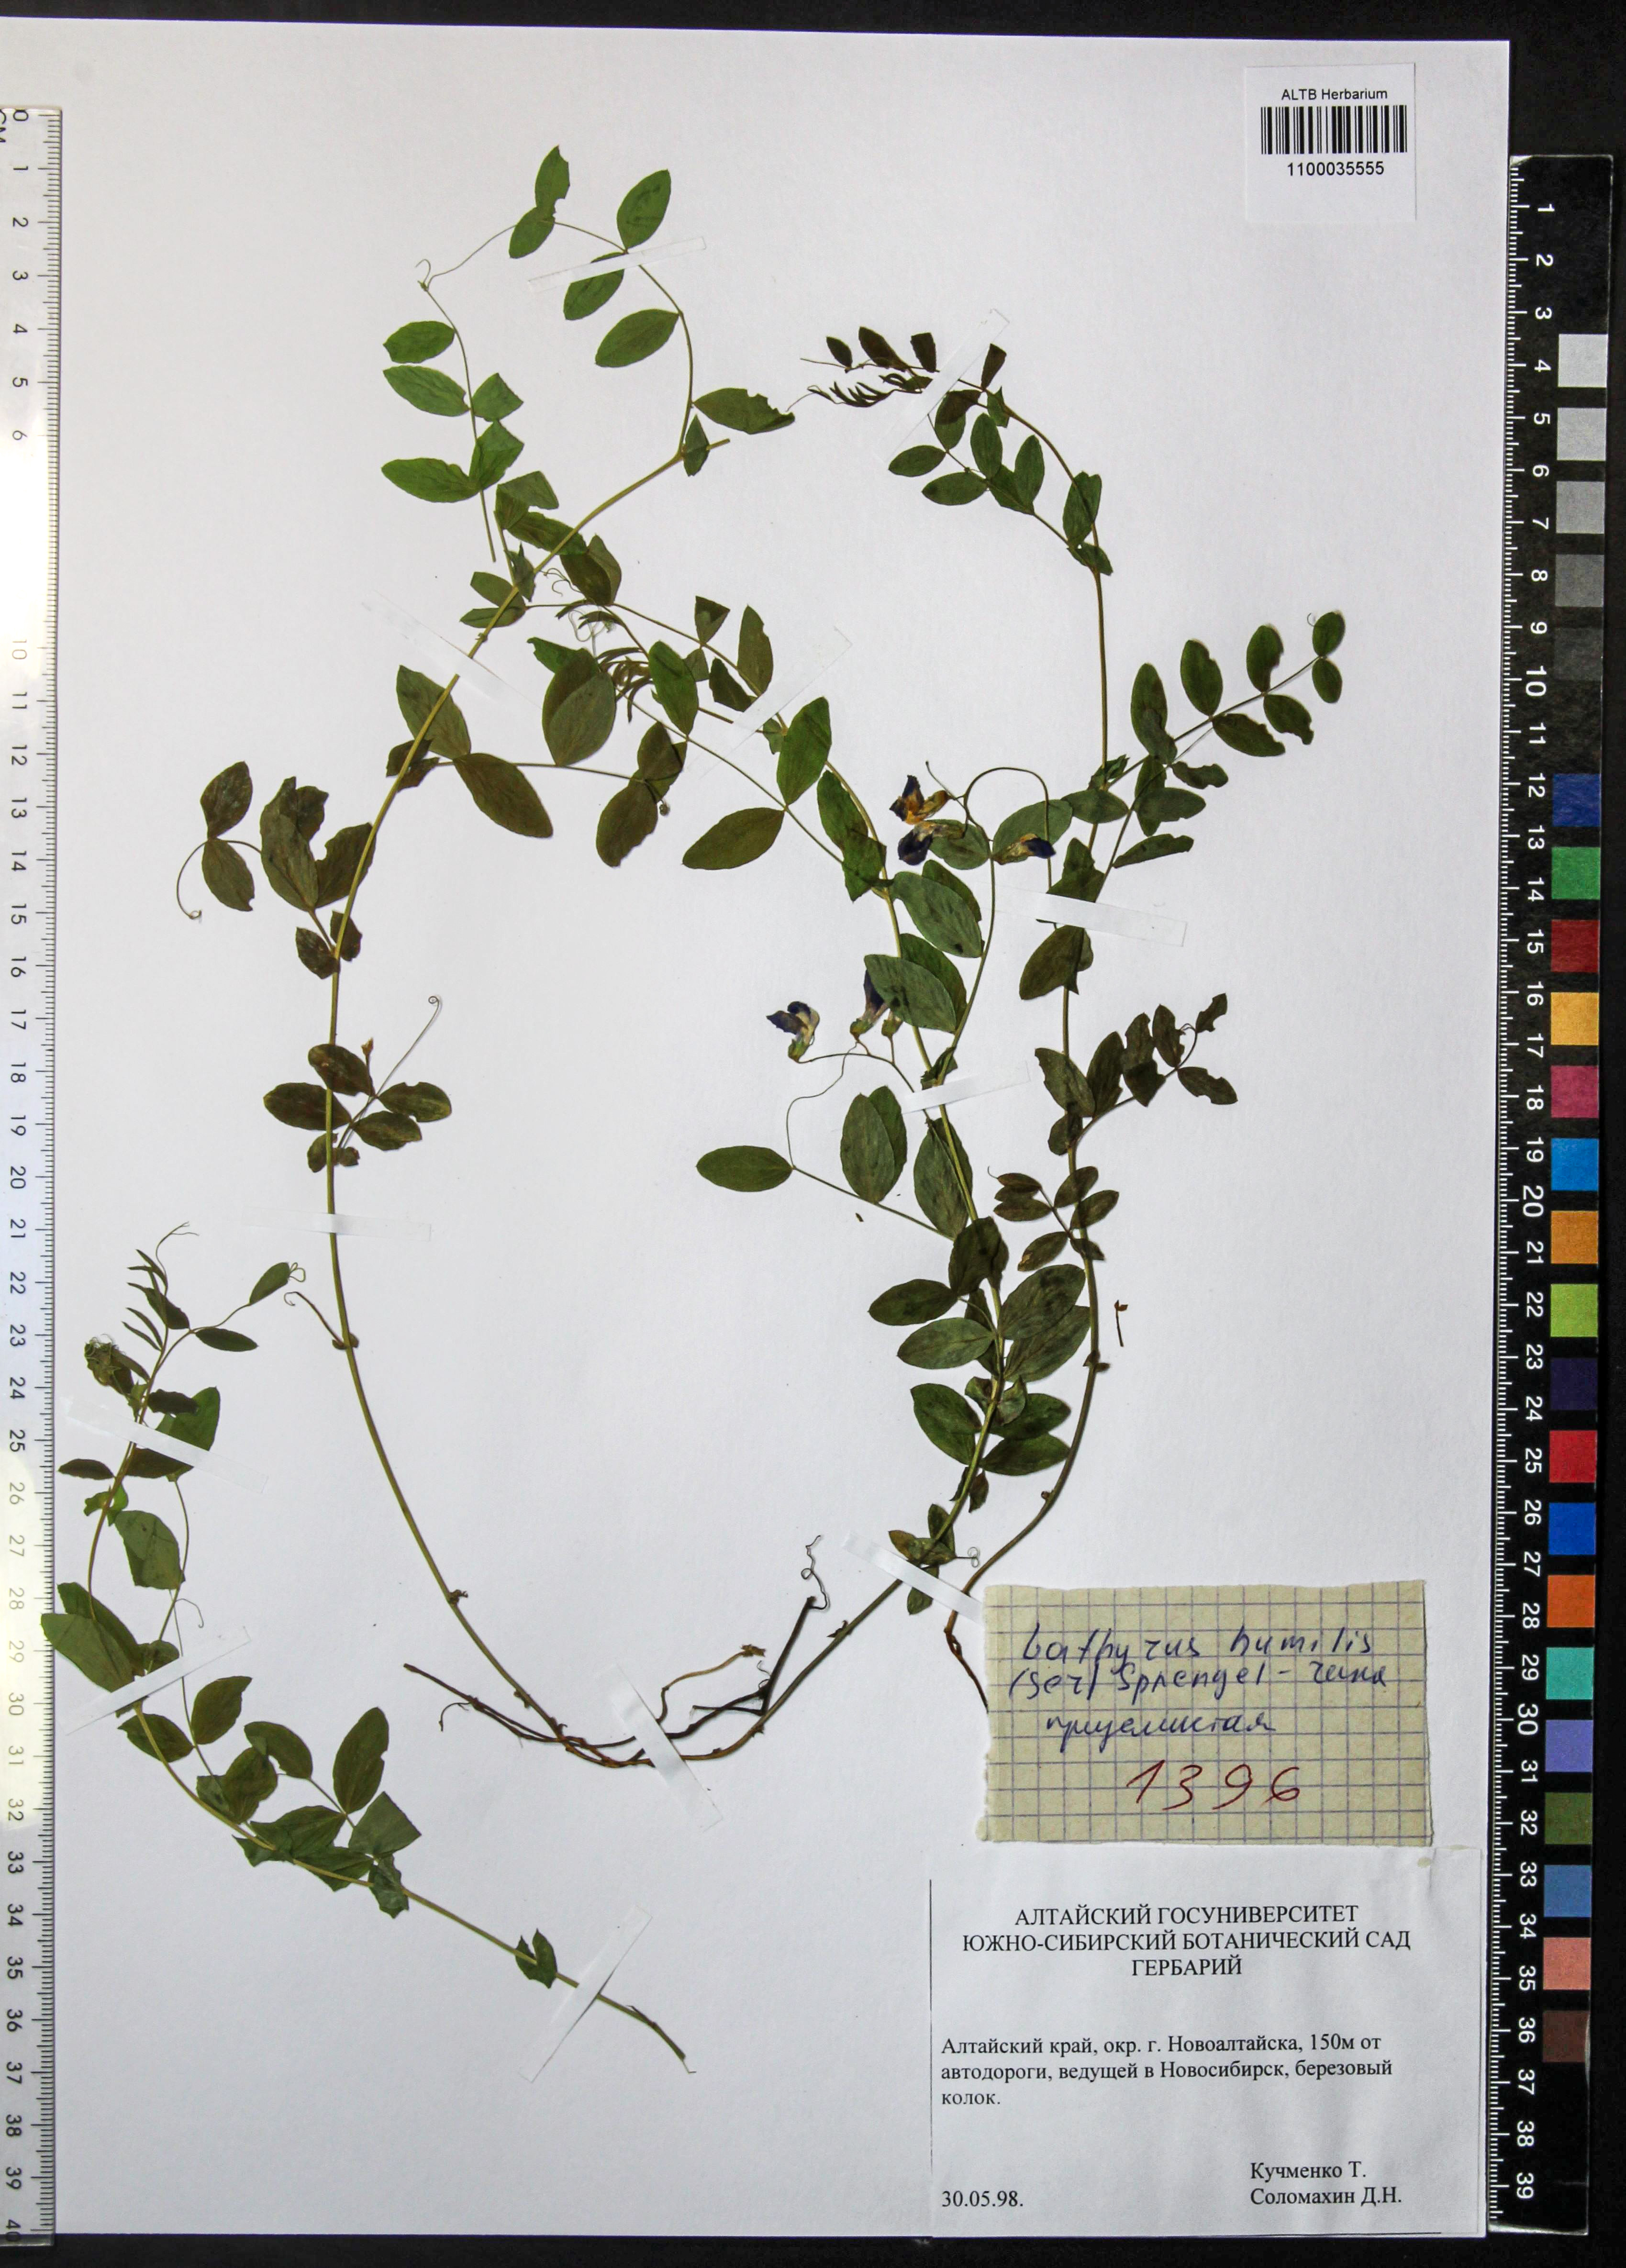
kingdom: Plantae
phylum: Tracheophyta
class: Magnoliopsida
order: Fabales
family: Fabaceae
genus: Lathyrus
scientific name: Lathyrus humilis
